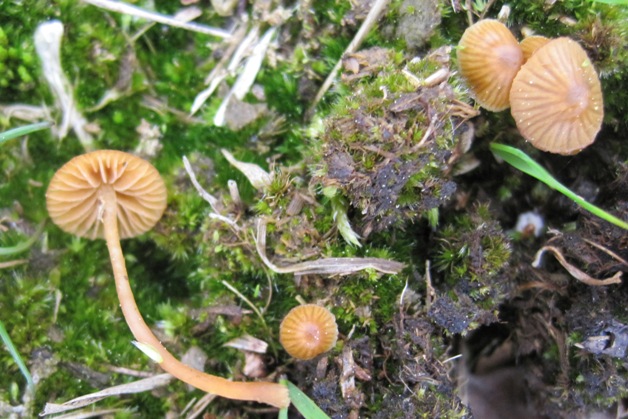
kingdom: Fungi
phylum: Basidiomycota
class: Agaricomycetes
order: Agaricales
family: Hymenogastraceae
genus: Galerina
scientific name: Galerina hypnorum
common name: mos-hjelmhat
